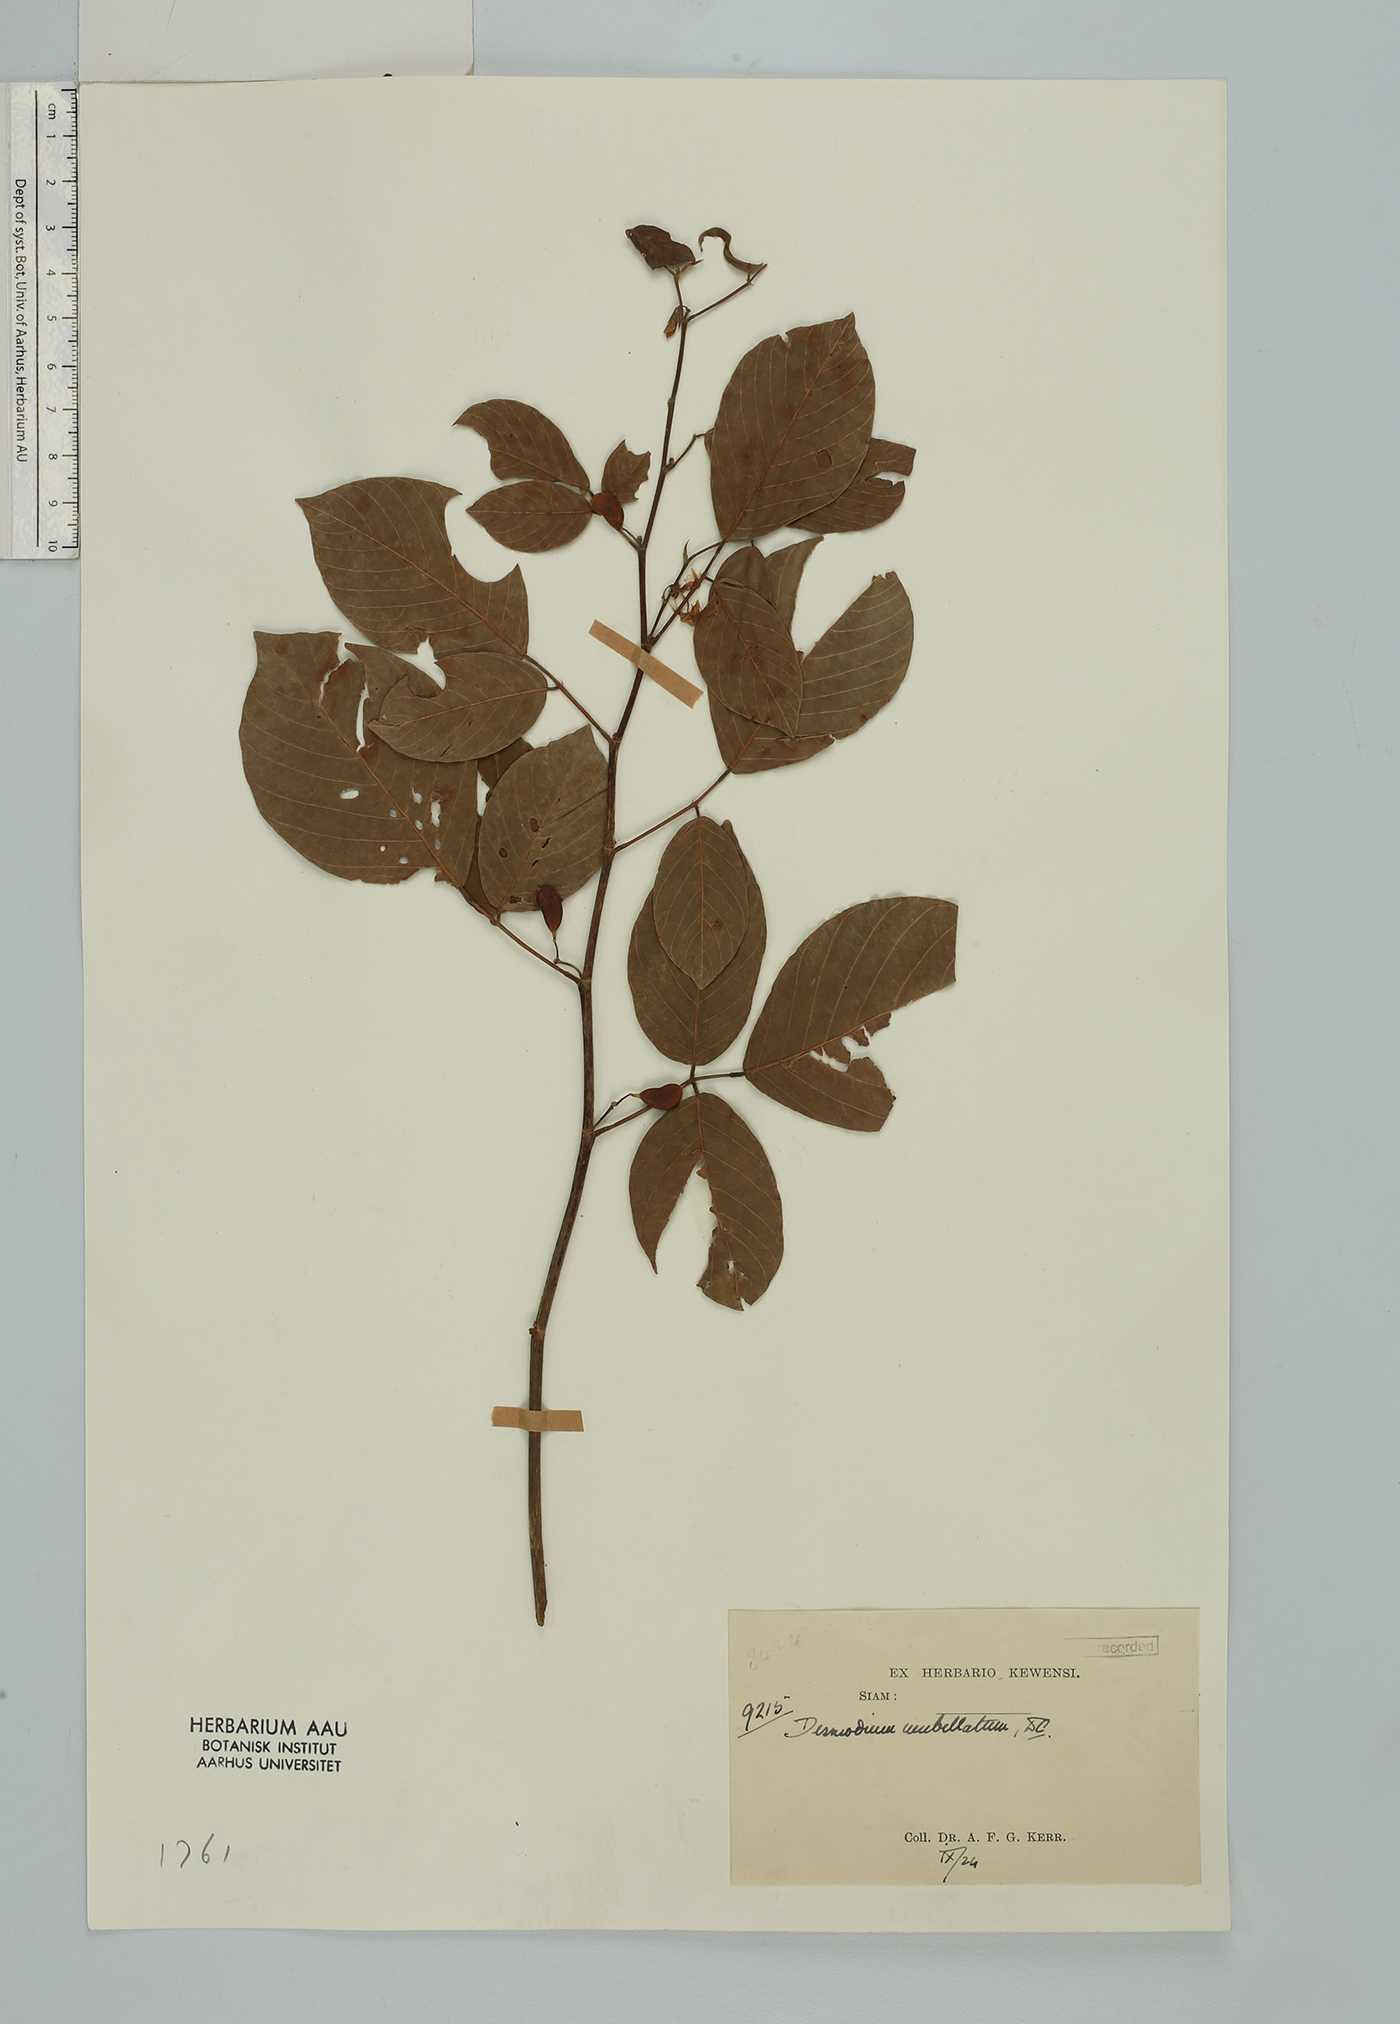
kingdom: Plantae
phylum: Tracheophyta
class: Magnoliopsida
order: Fabales
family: Fabaceae
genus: Dendrolobium
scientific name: Dendrolobium umbellatum
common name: Horsebush
